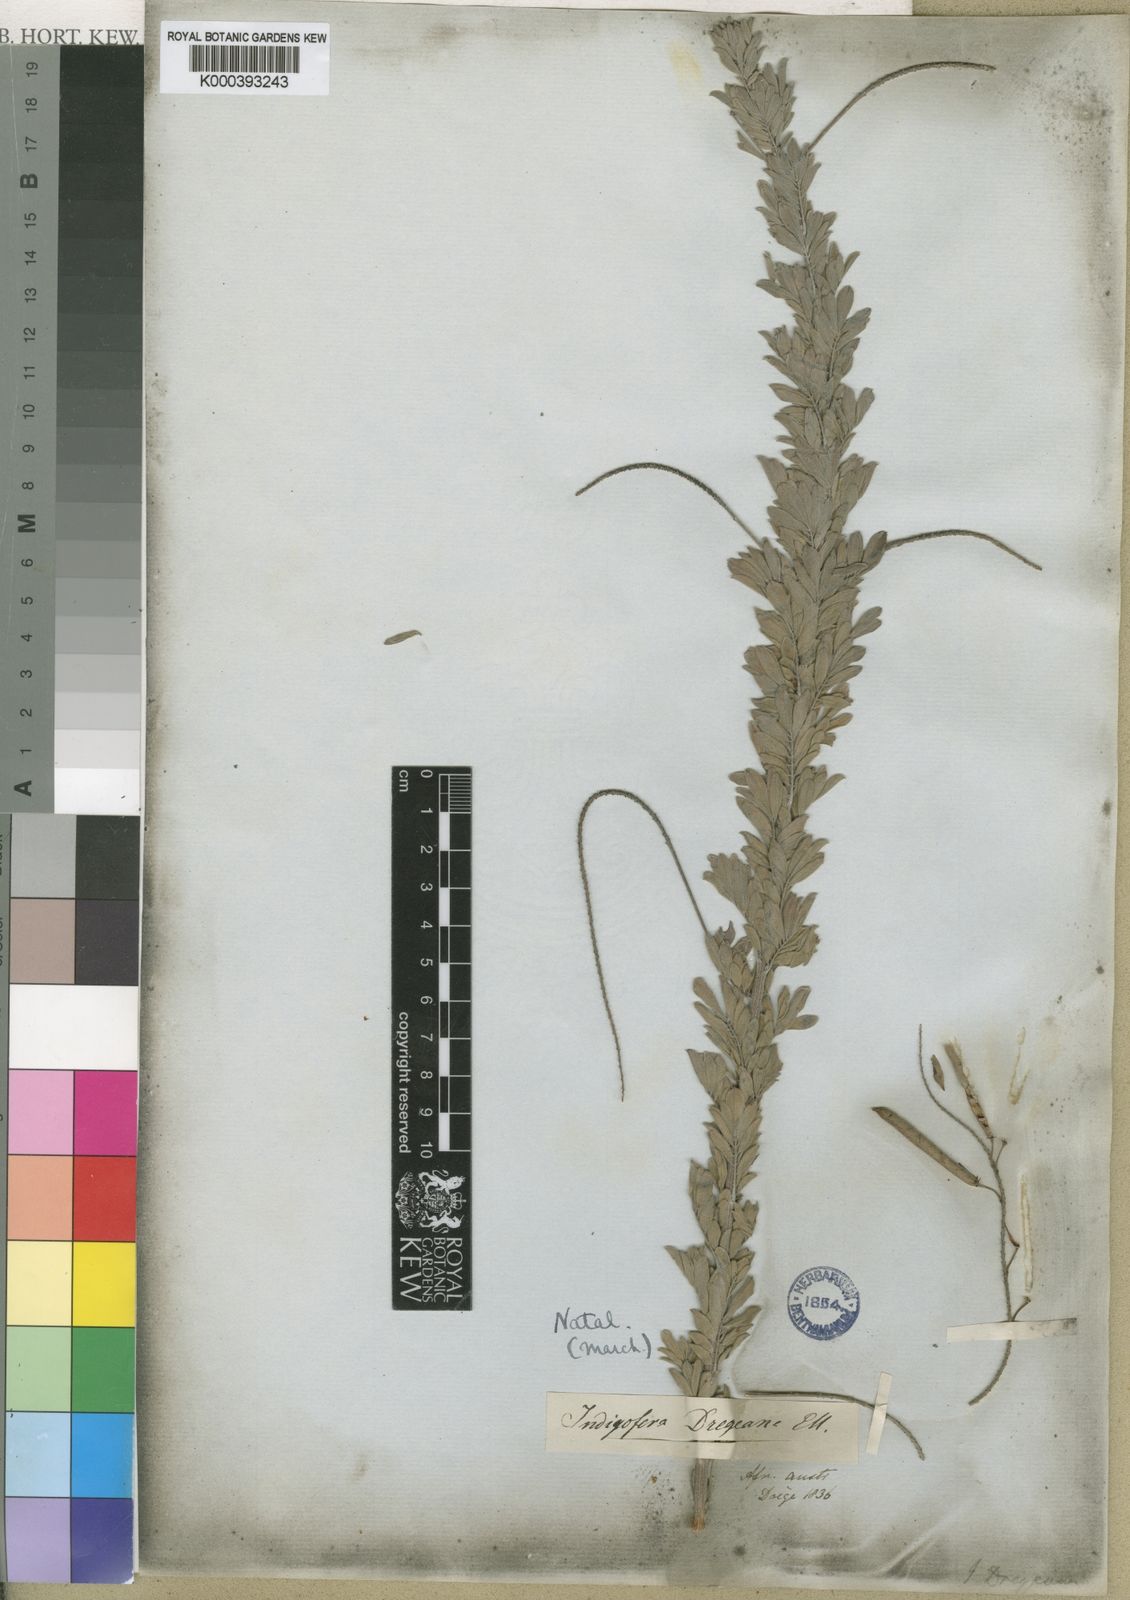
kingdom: Plantae
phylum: Tracheophyta
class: Magnoliopsida
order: Fabales
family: Fabaceae
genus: Indigofera
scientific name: Indigofera dregeana
